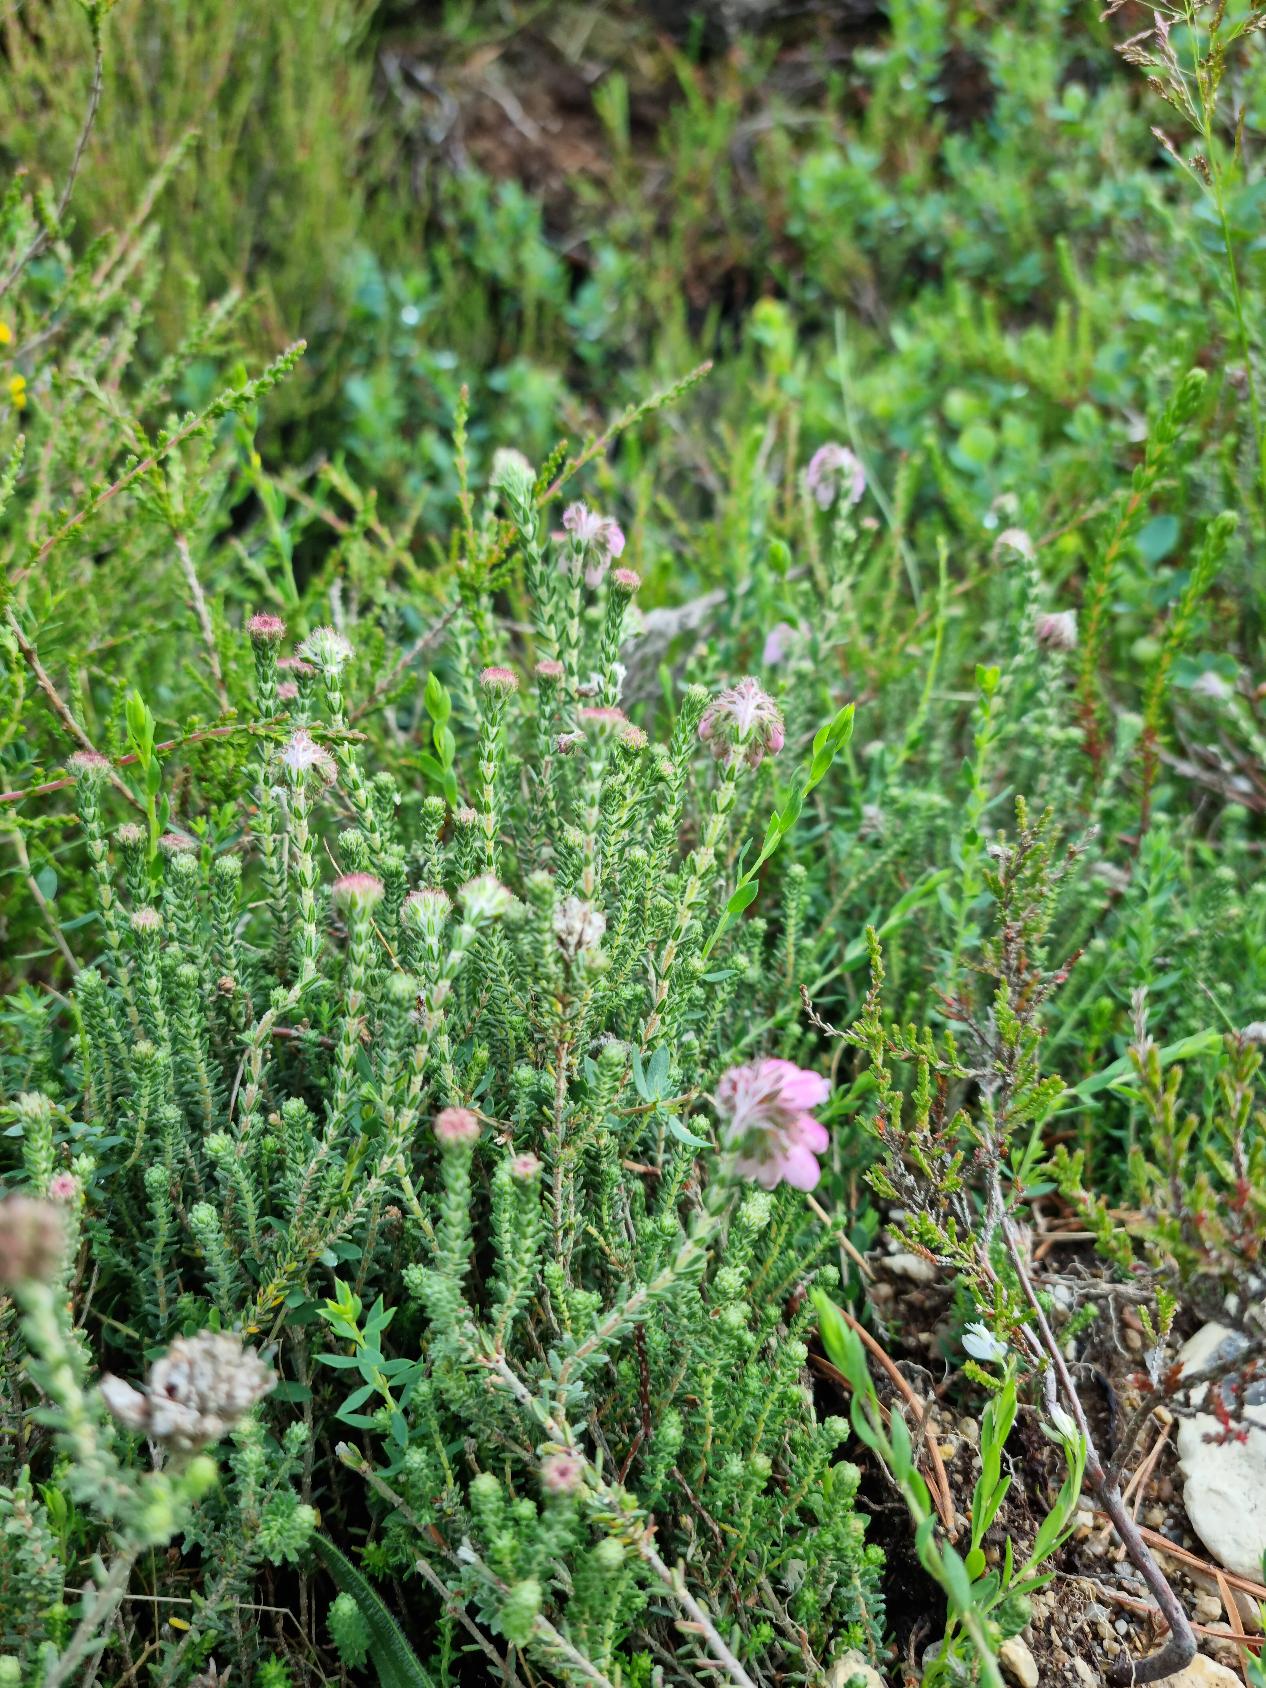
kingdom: Plantae
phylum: Tracheophyta
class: Magnoliopsida
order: Ericales
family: Ericaceae
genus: Erica
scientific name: Erica tetralix
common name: Klokkelyng
